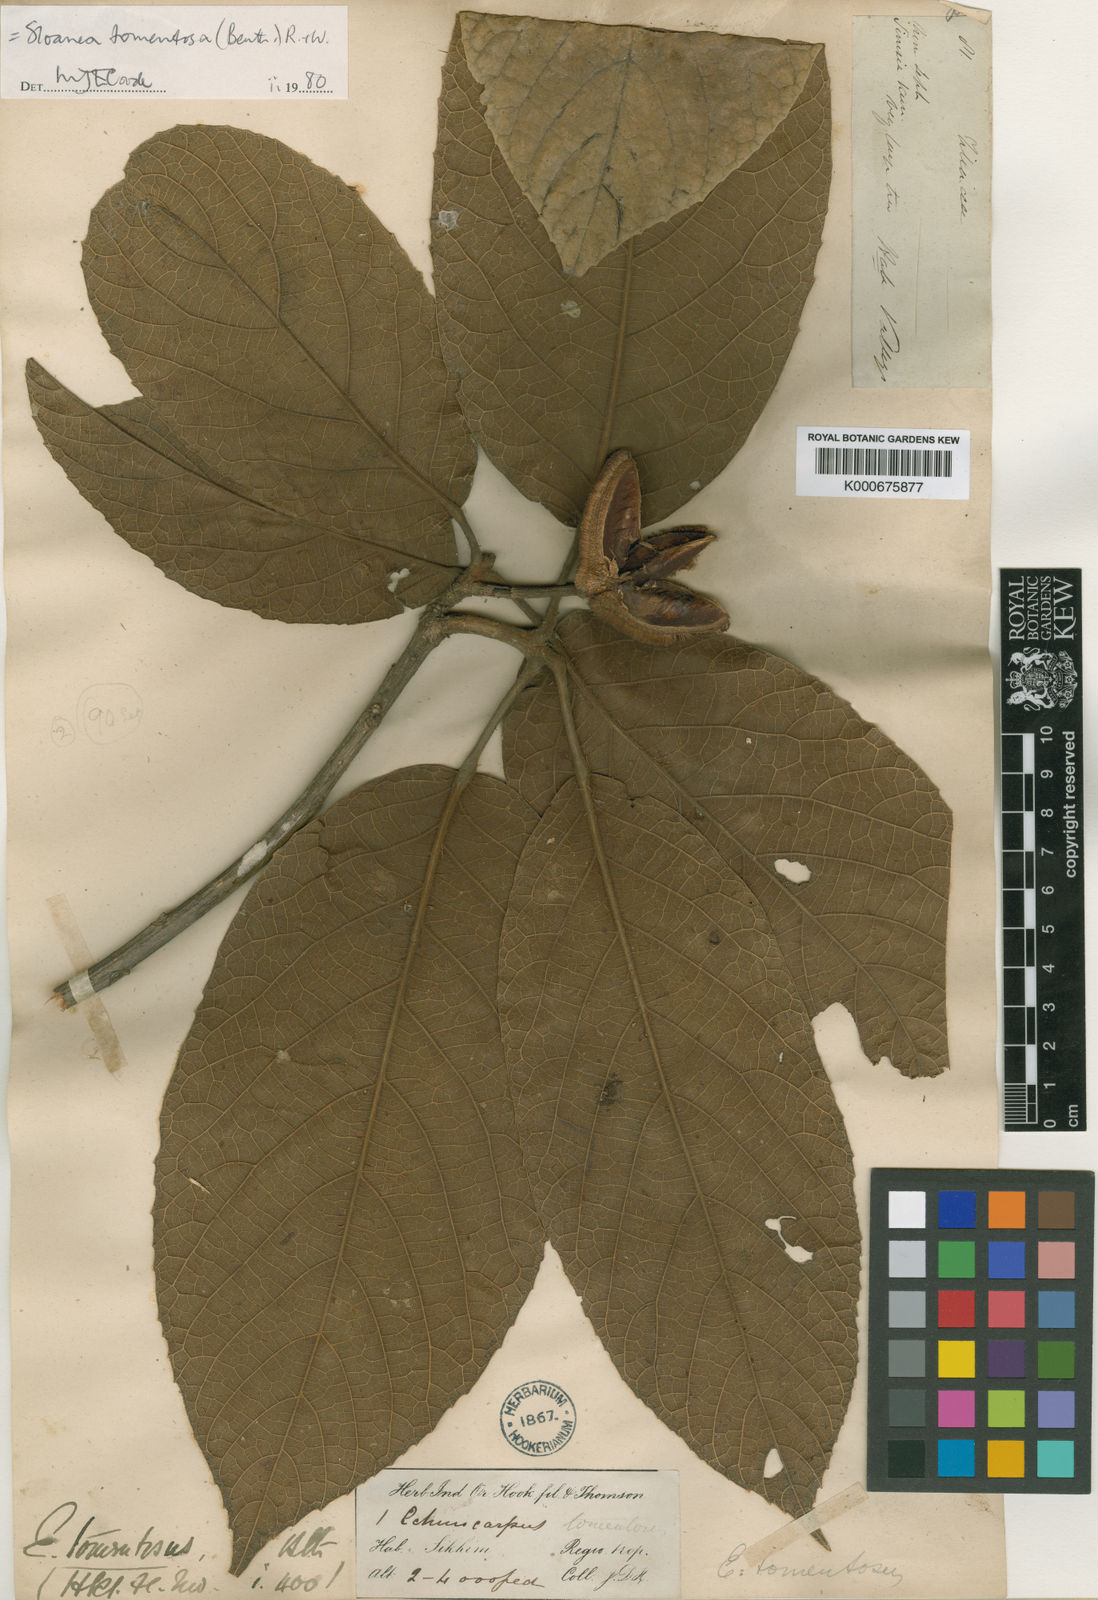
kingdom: Plantae
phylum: Tracheophyta
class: Magnoliopsida
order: Oxalidales
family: Elaeocarpaceae
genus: Sloanea
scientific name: Sloanea tomentosa
